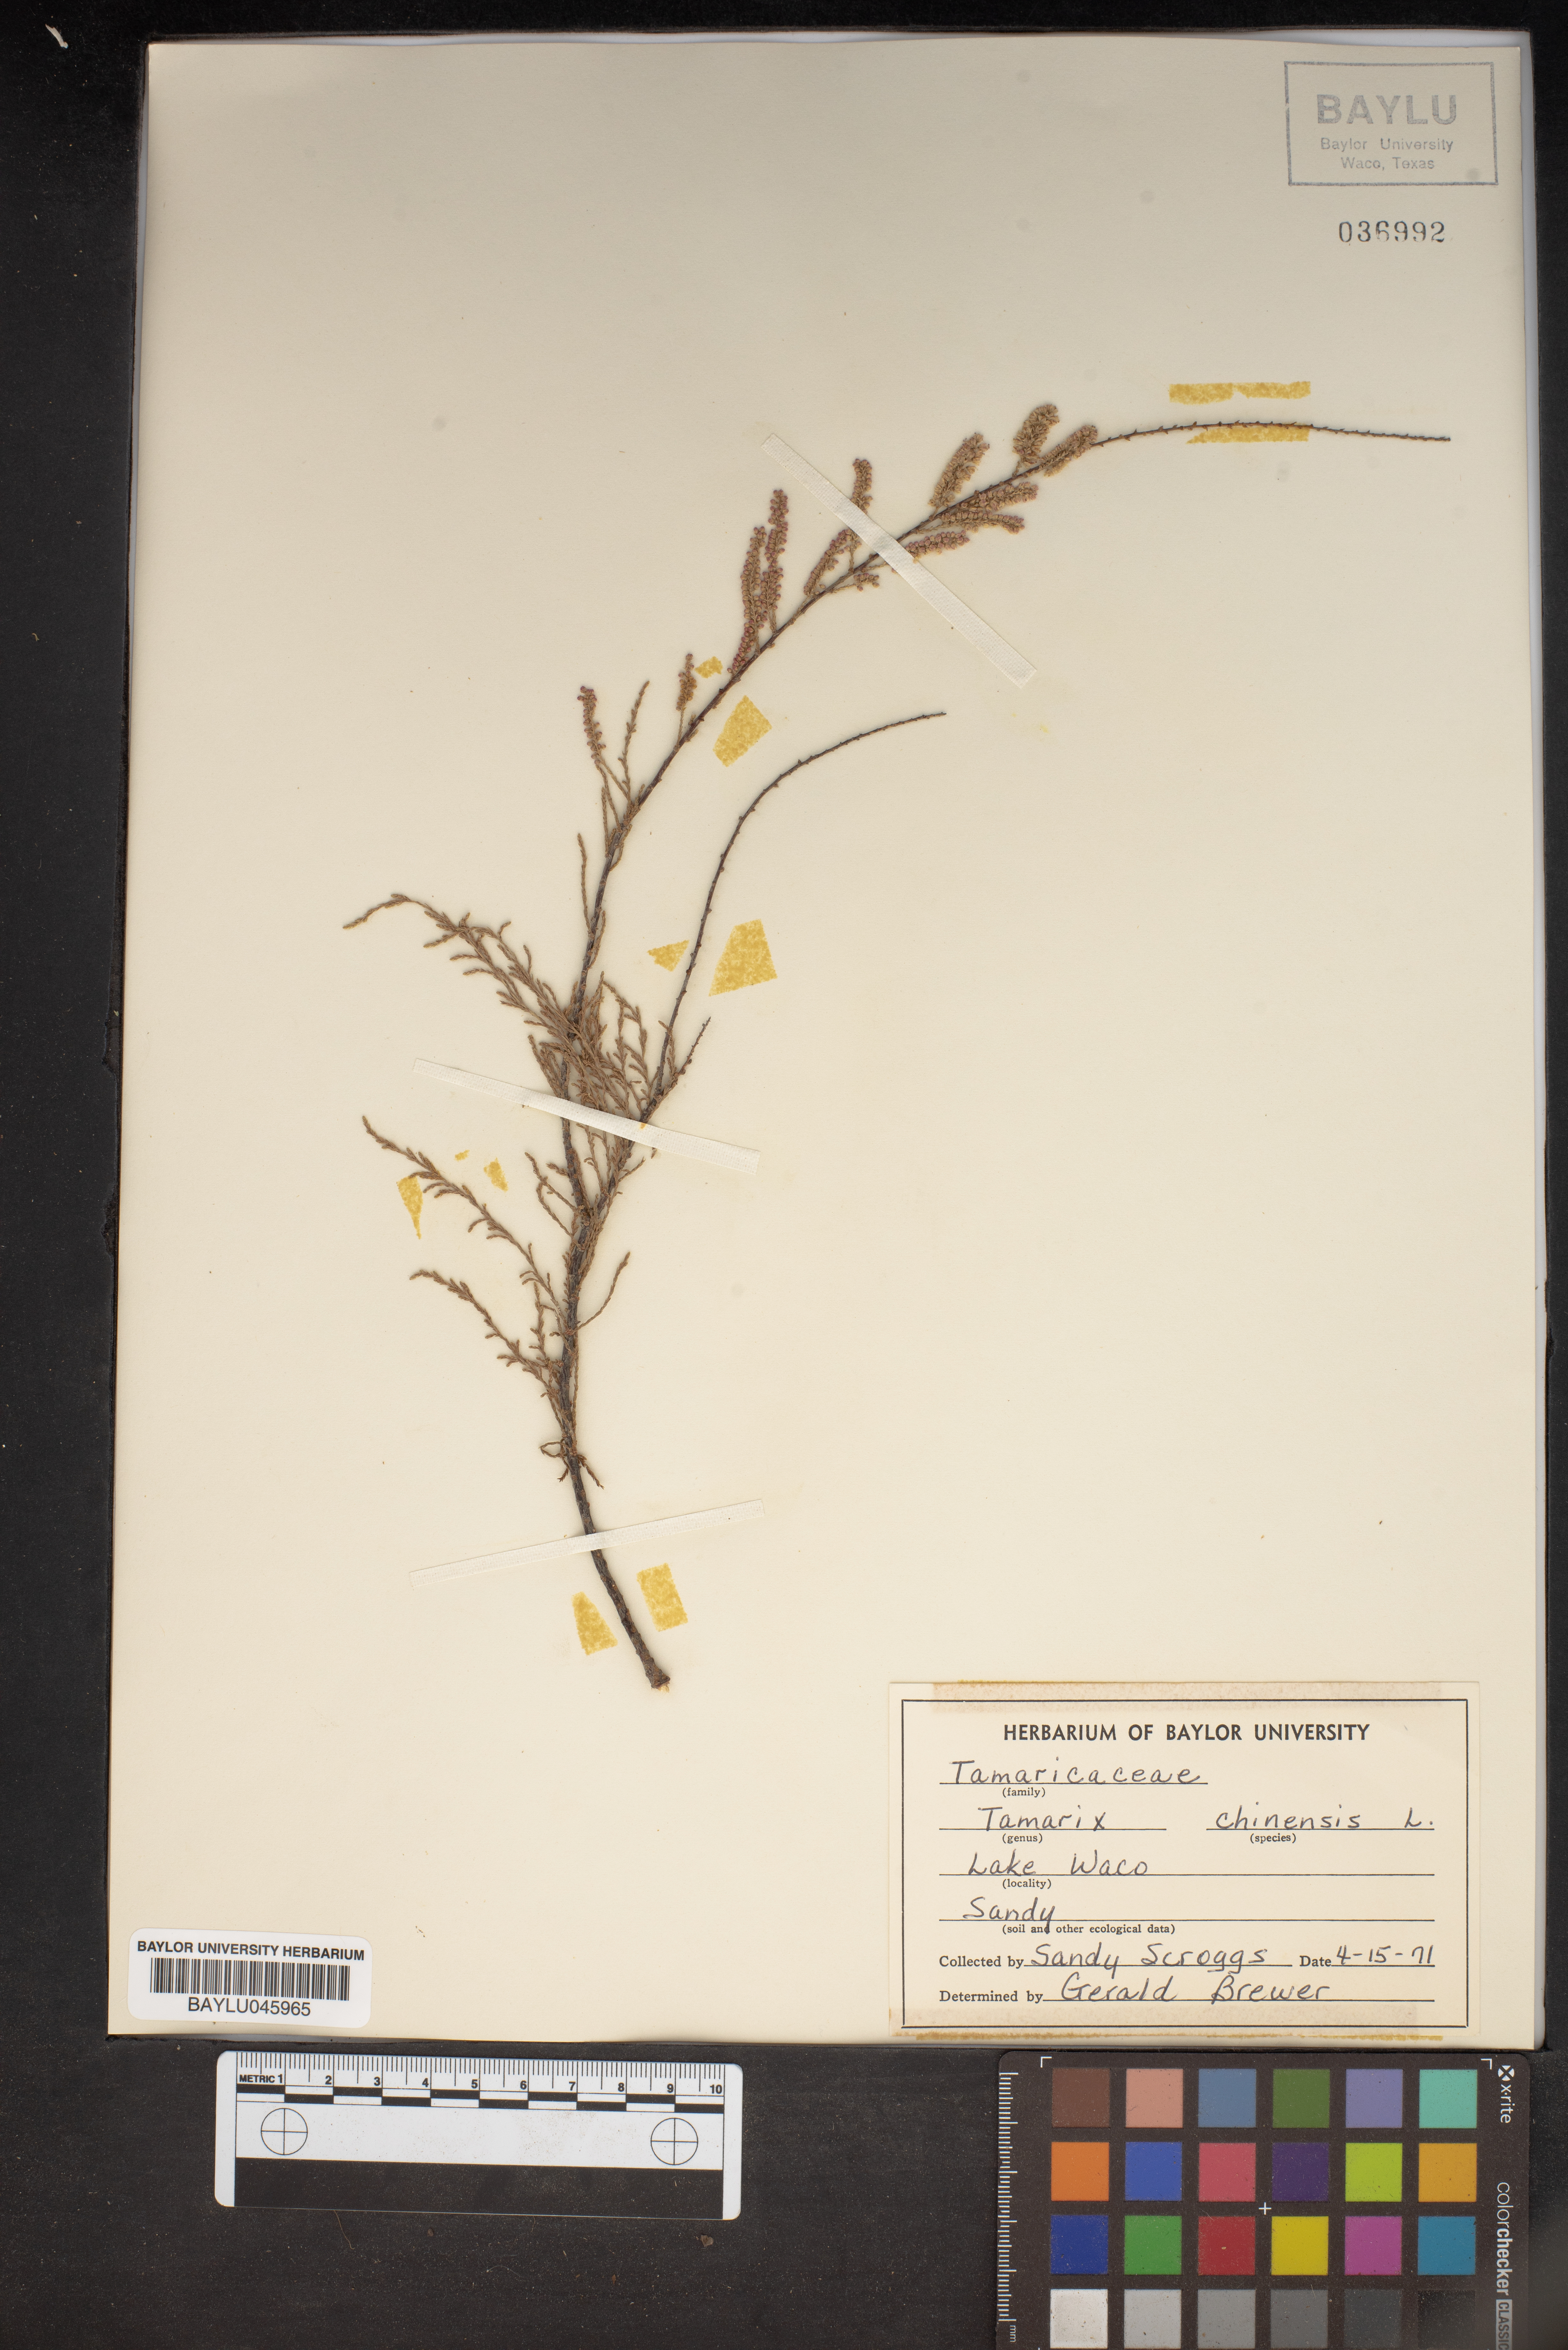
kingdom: Plantae
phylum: Tracheophyta
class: Magnoliopsida
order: Caryophyllales
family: Tamaricaceae
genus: Tamarix
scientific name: Tamarix chinensis
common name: Chinese tamarisk
